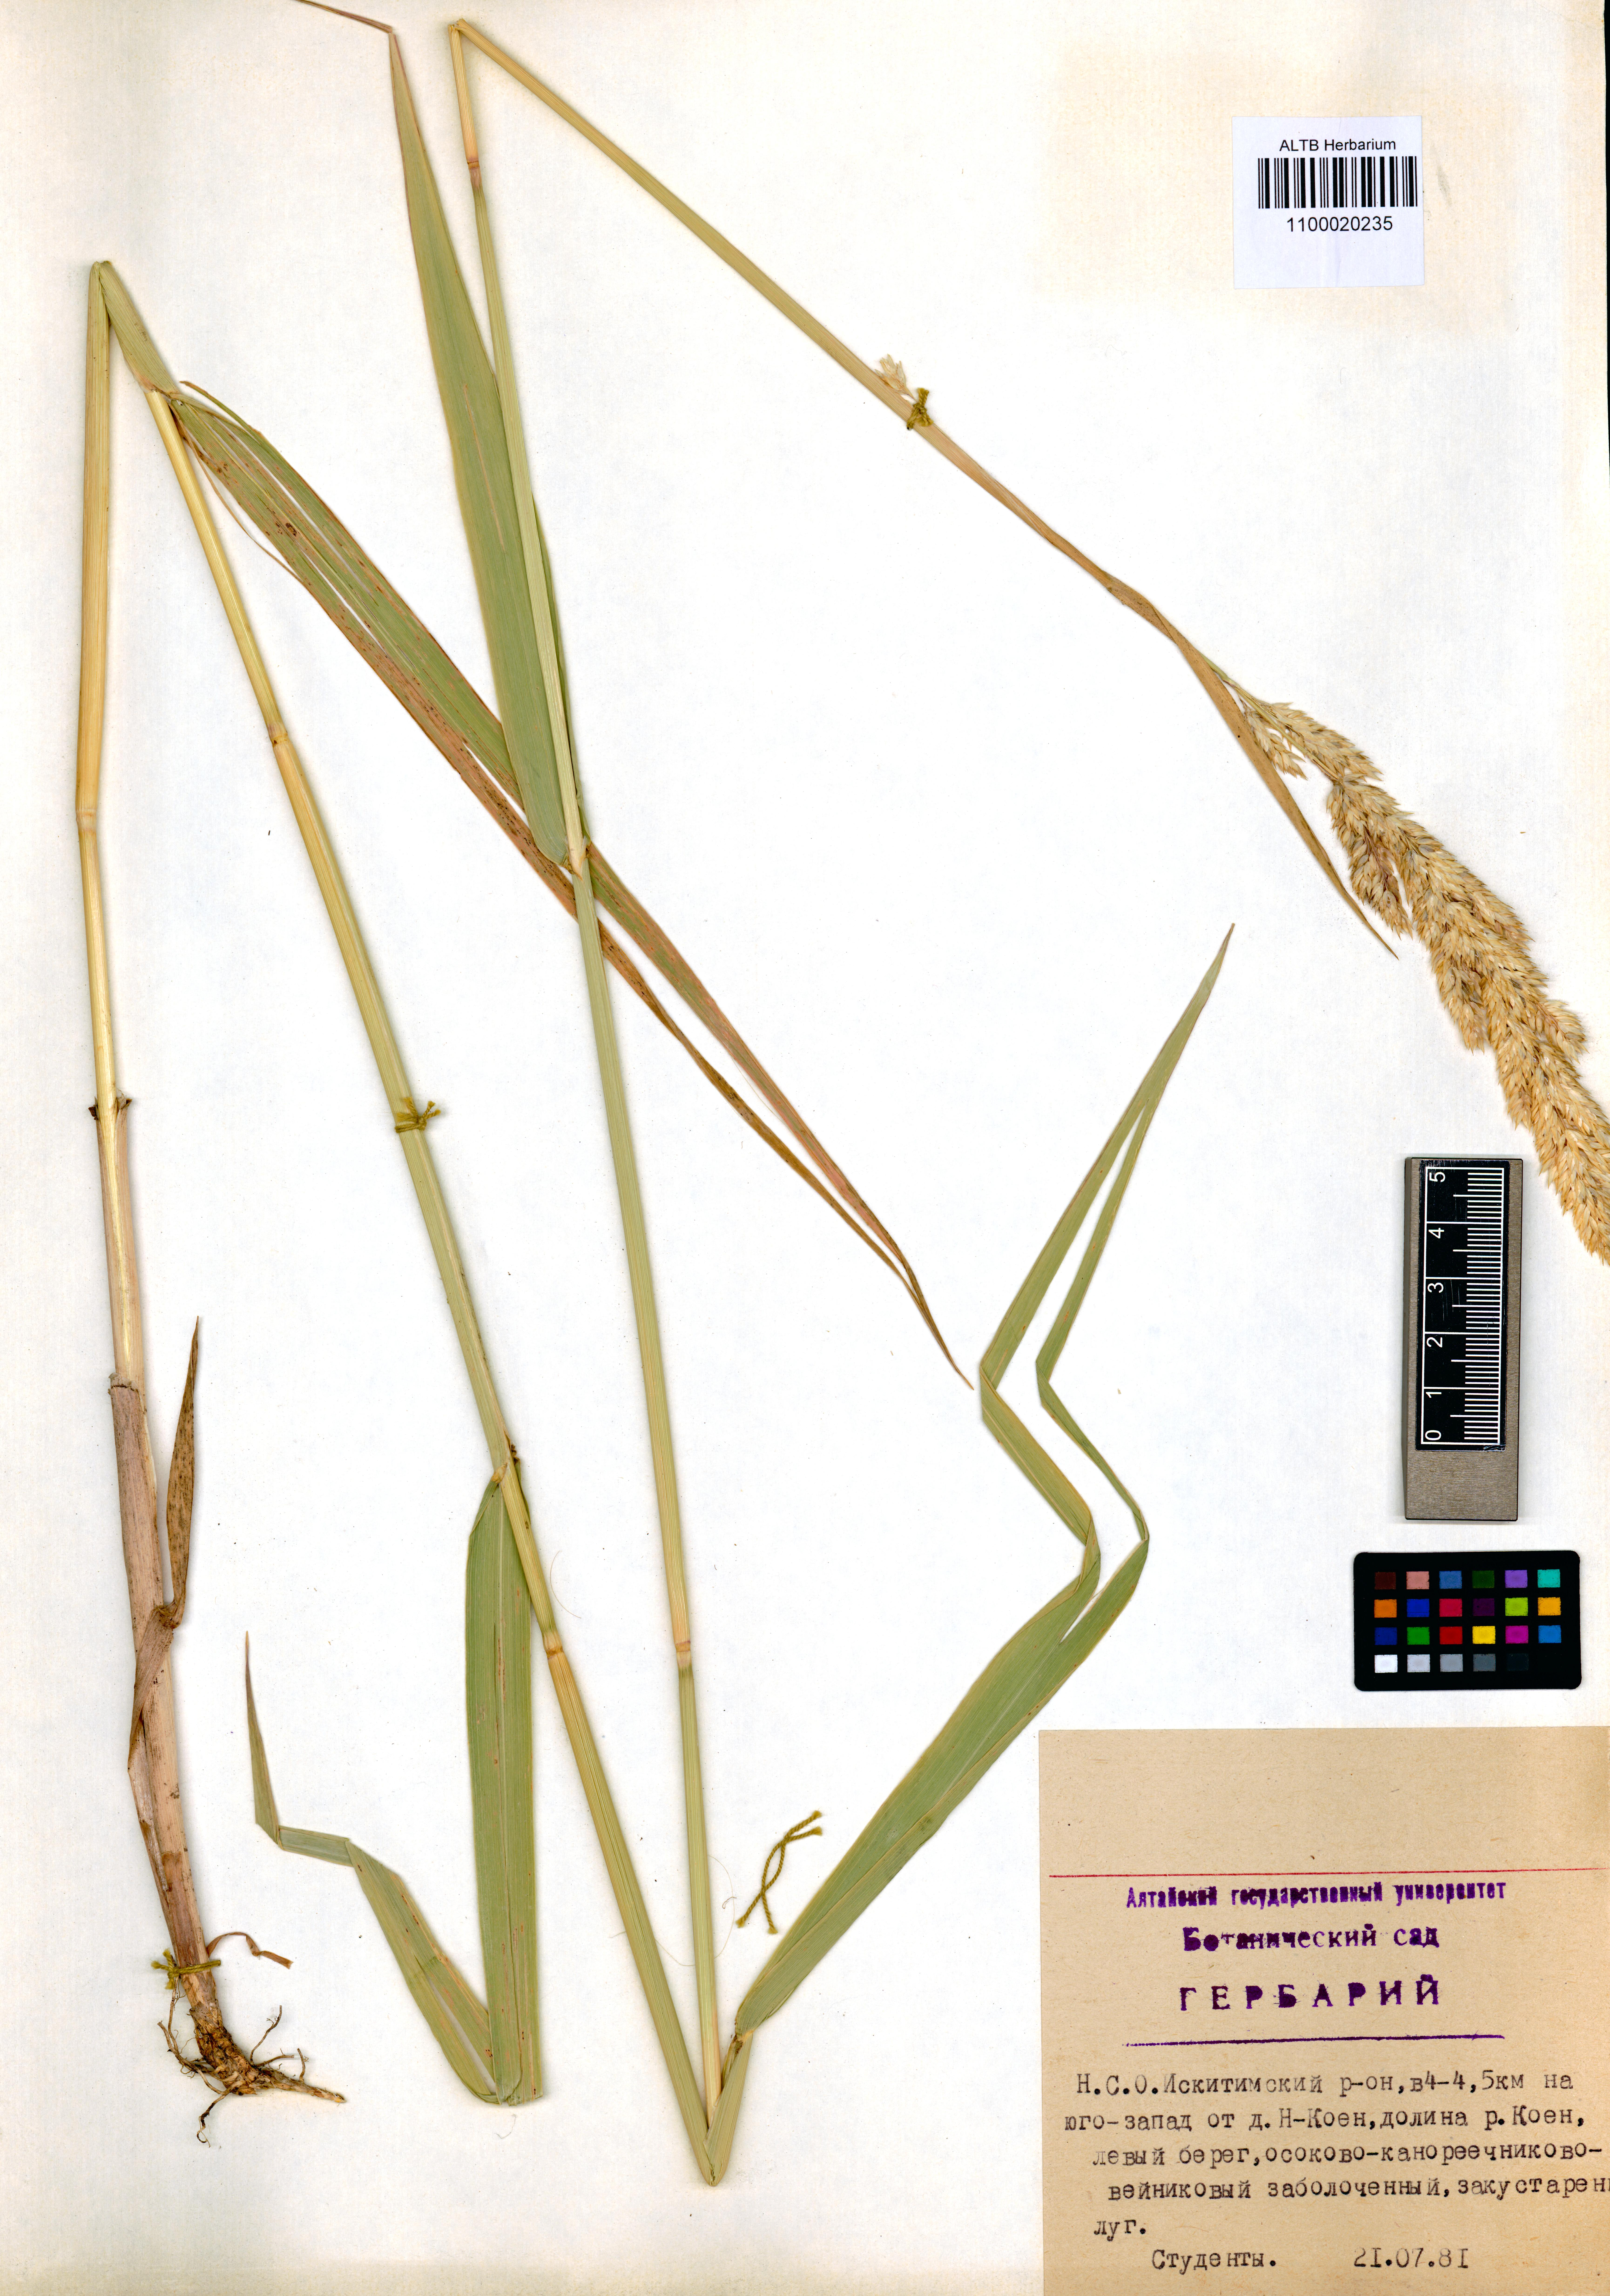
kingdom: Plantae
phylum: Tracheophyta
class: Liliopsida
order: Poales
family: Poaceae
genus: Phalaris
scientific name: Phalaris arundinacea
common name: Reed canary-grass
